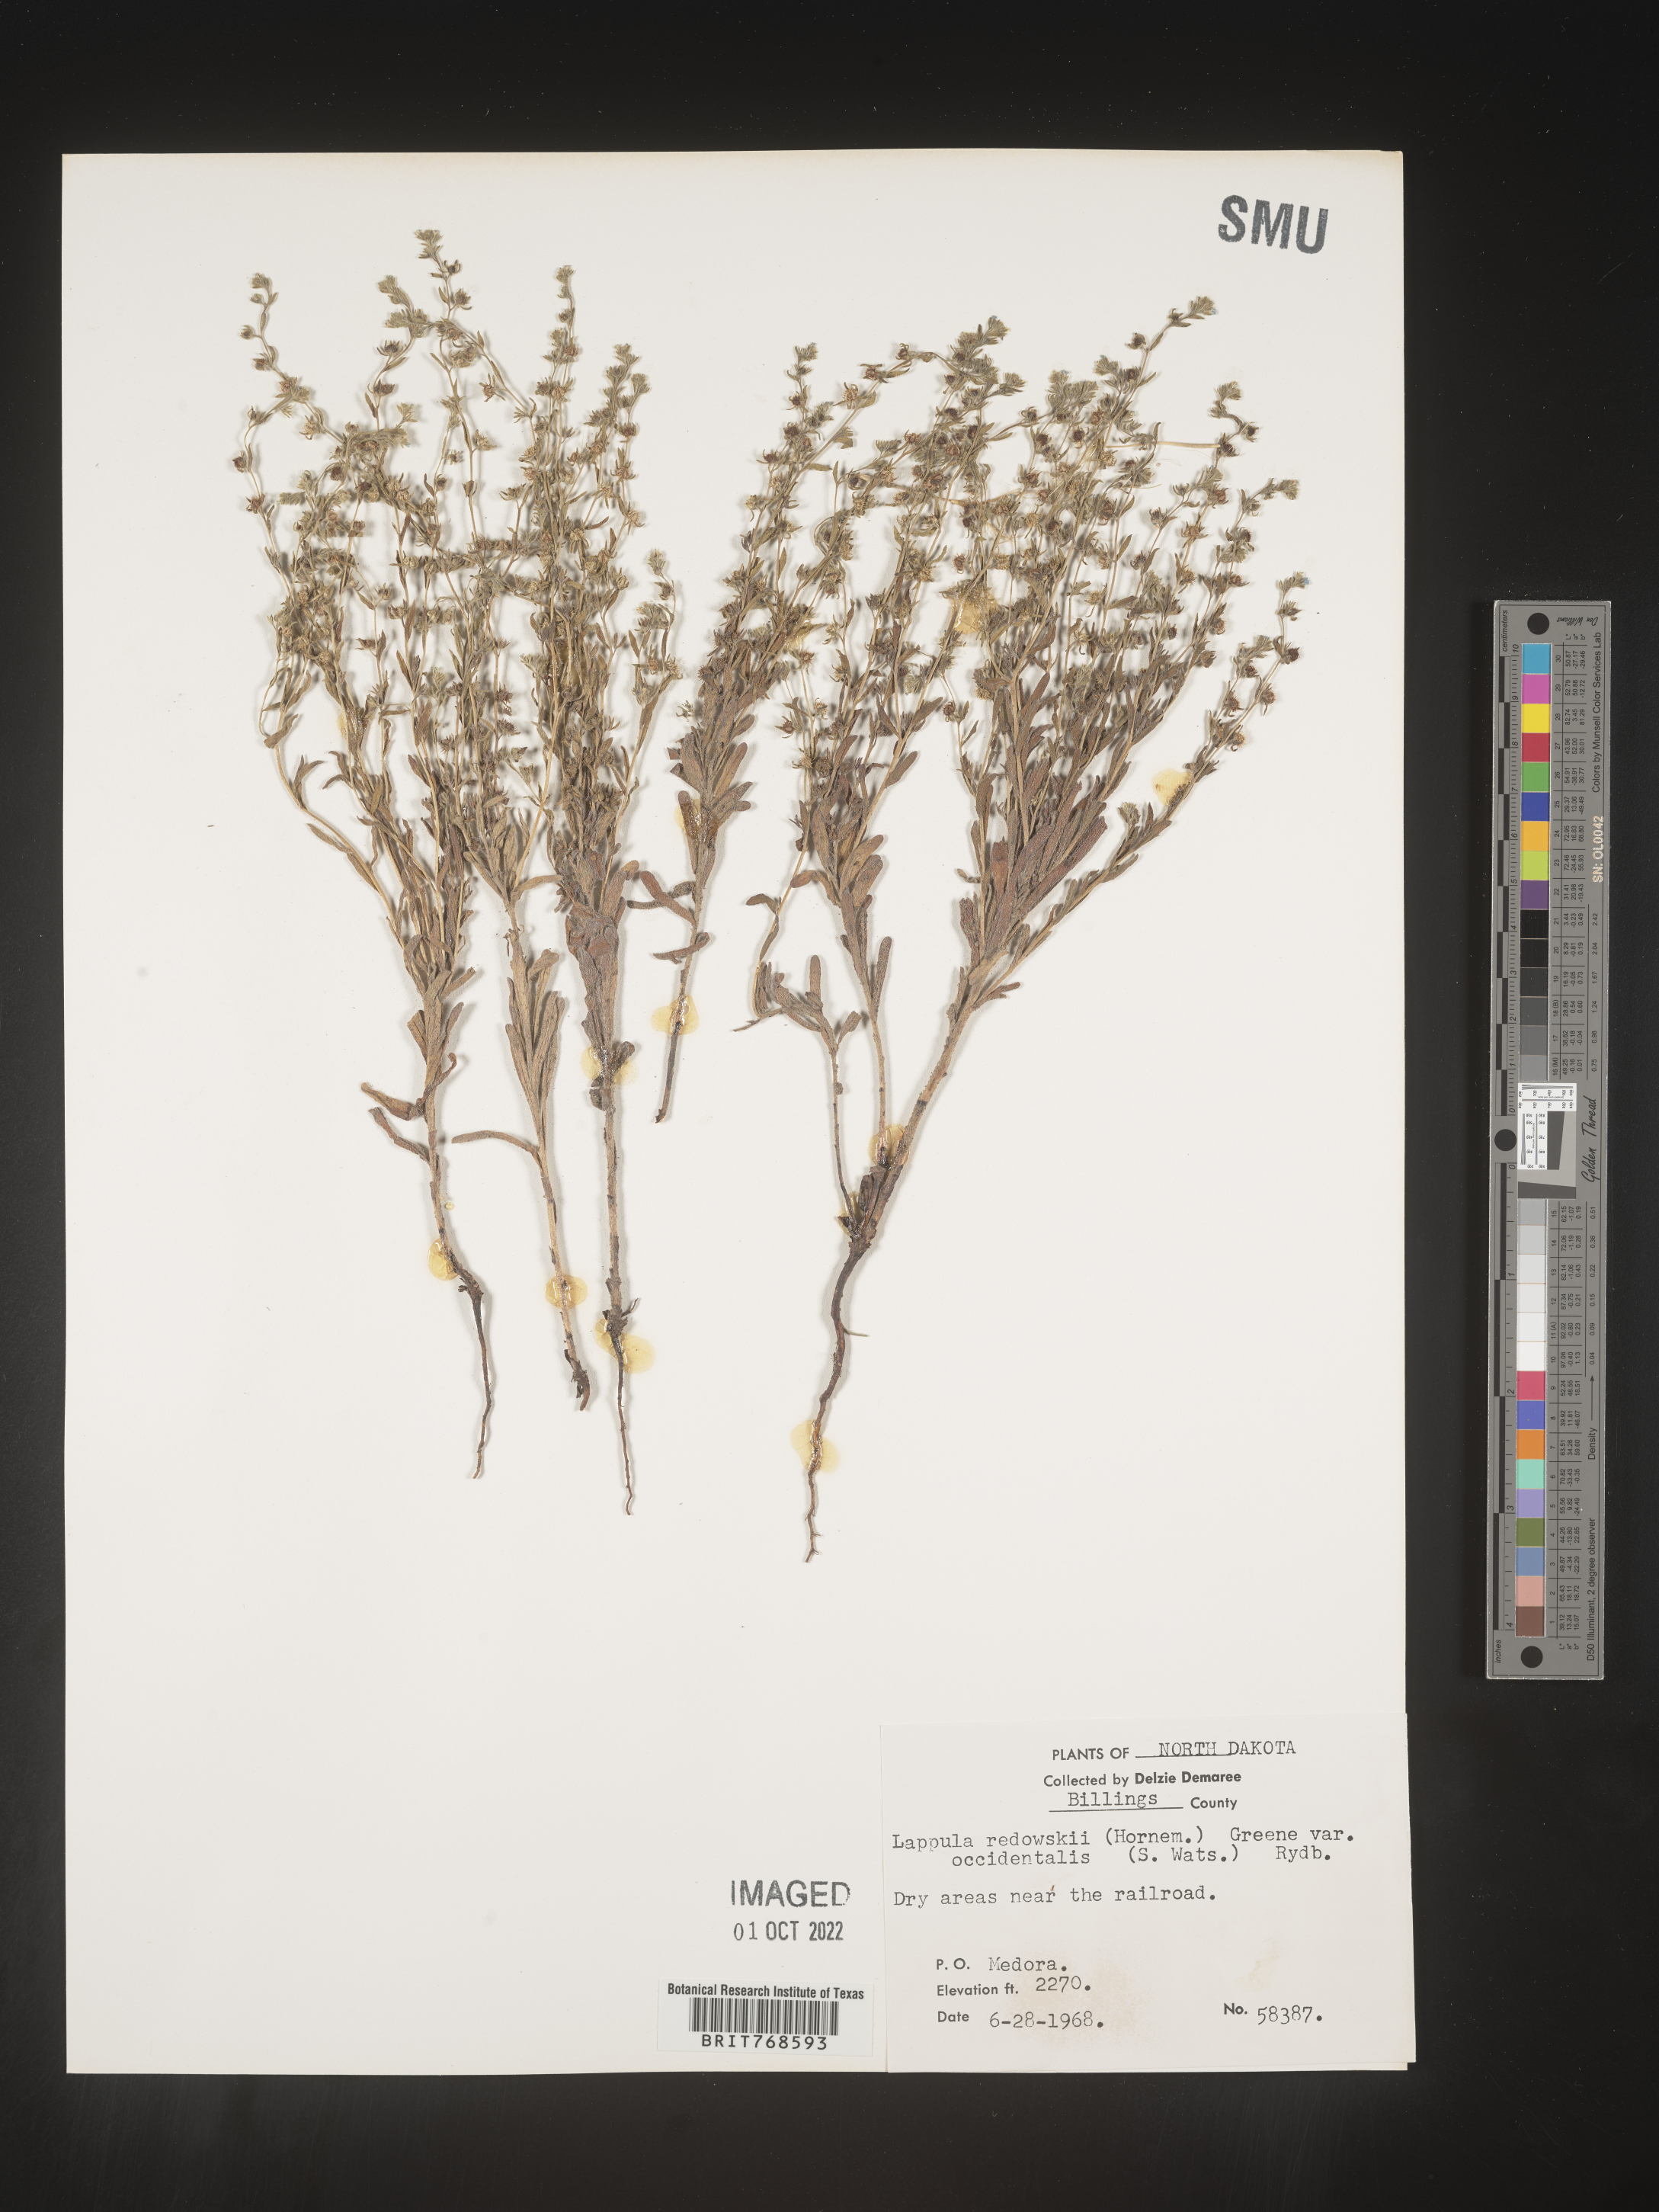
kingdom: Plantae
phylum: Tracheophyta
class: Magnoliopsida
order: Boraginales
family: Boraginaceae
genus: Lappula
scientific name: Lappula redowskii
